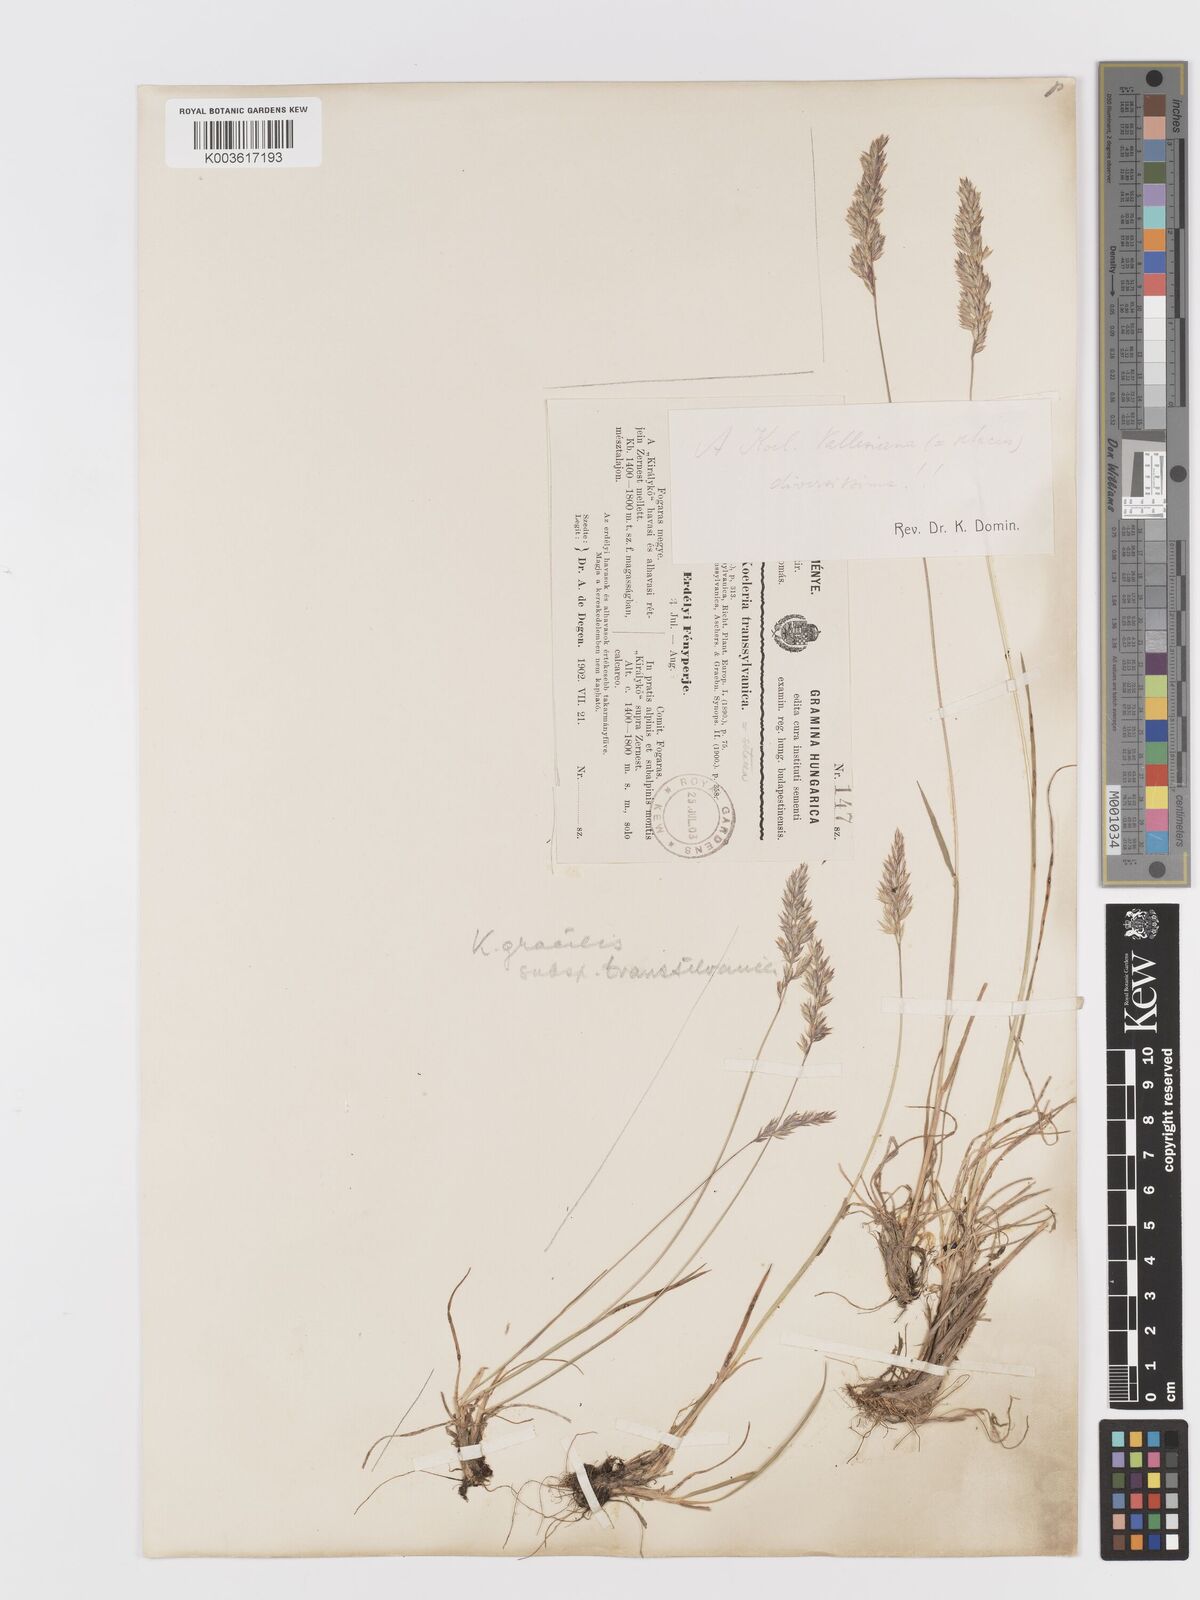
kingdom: Plantae
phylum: Tracheophyta
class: Liliopsida
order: Poales
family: Poaceae
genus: Koeleria
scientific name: Koeleria macrantha
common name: Crested hair-grass
